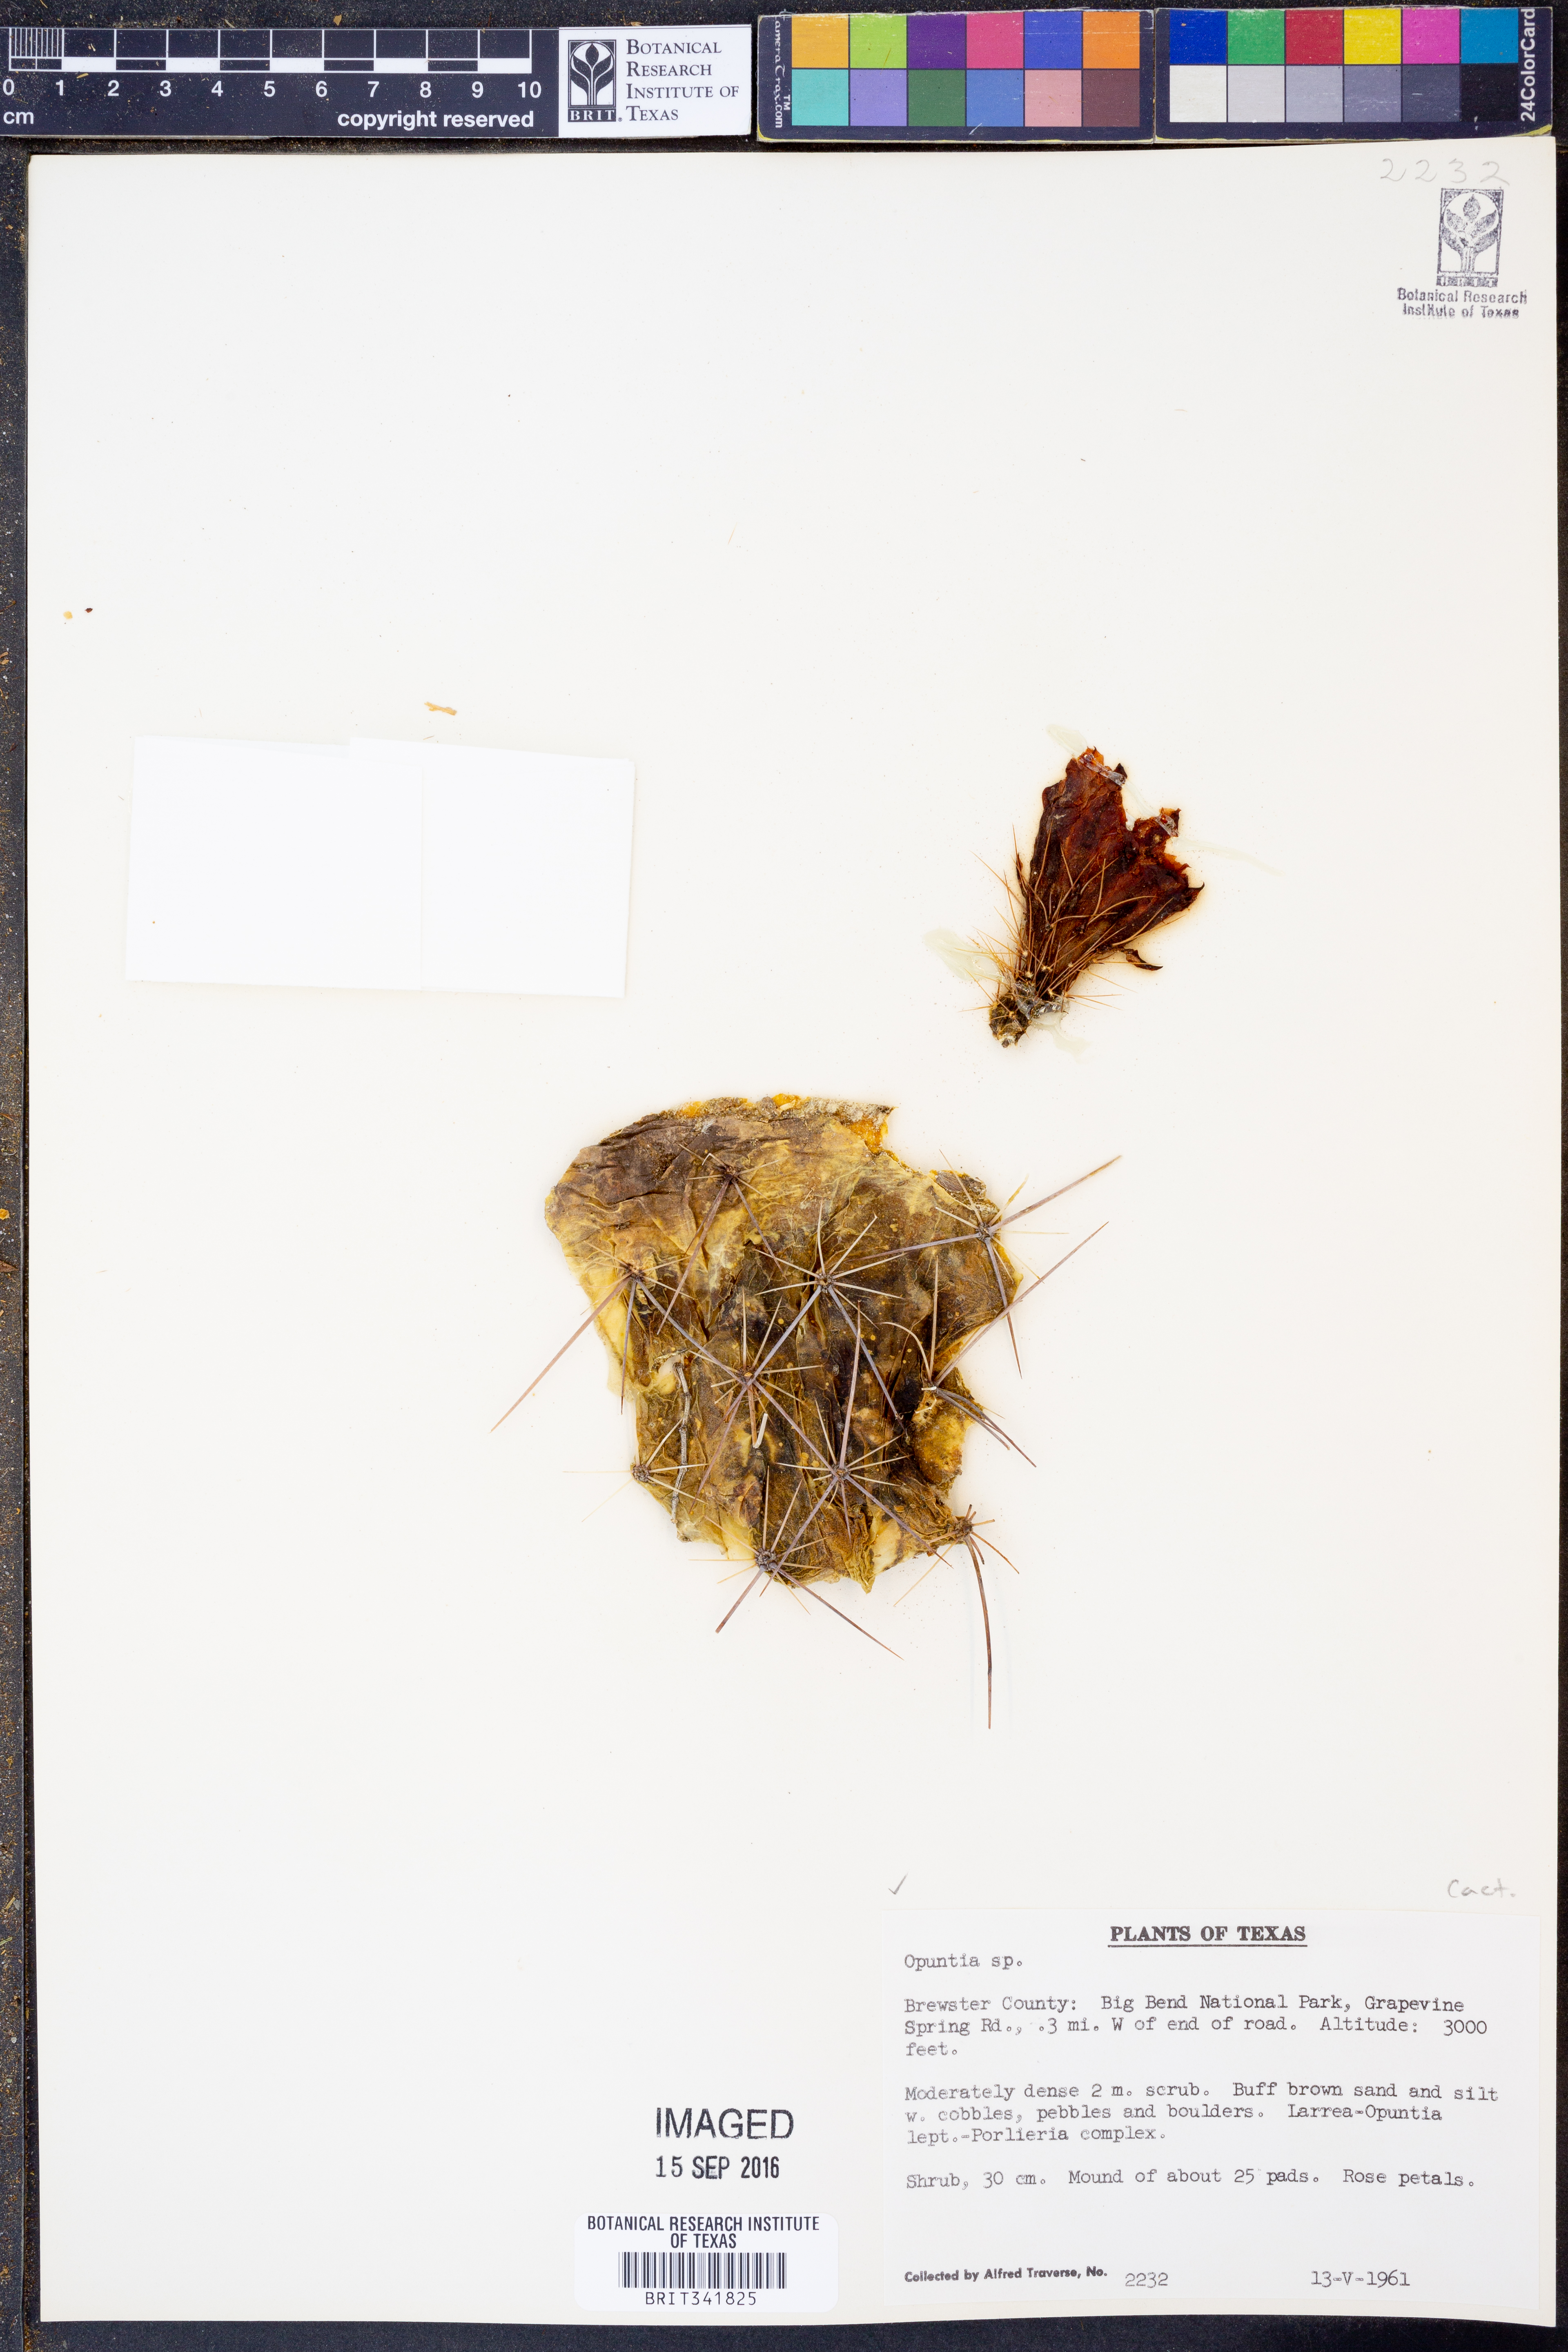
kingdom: Plantae
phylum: Tracheophyta
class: Magnoliopsida
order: Caryophyllales
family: Cactaceae
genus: Opuntia
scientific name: Opuntia
